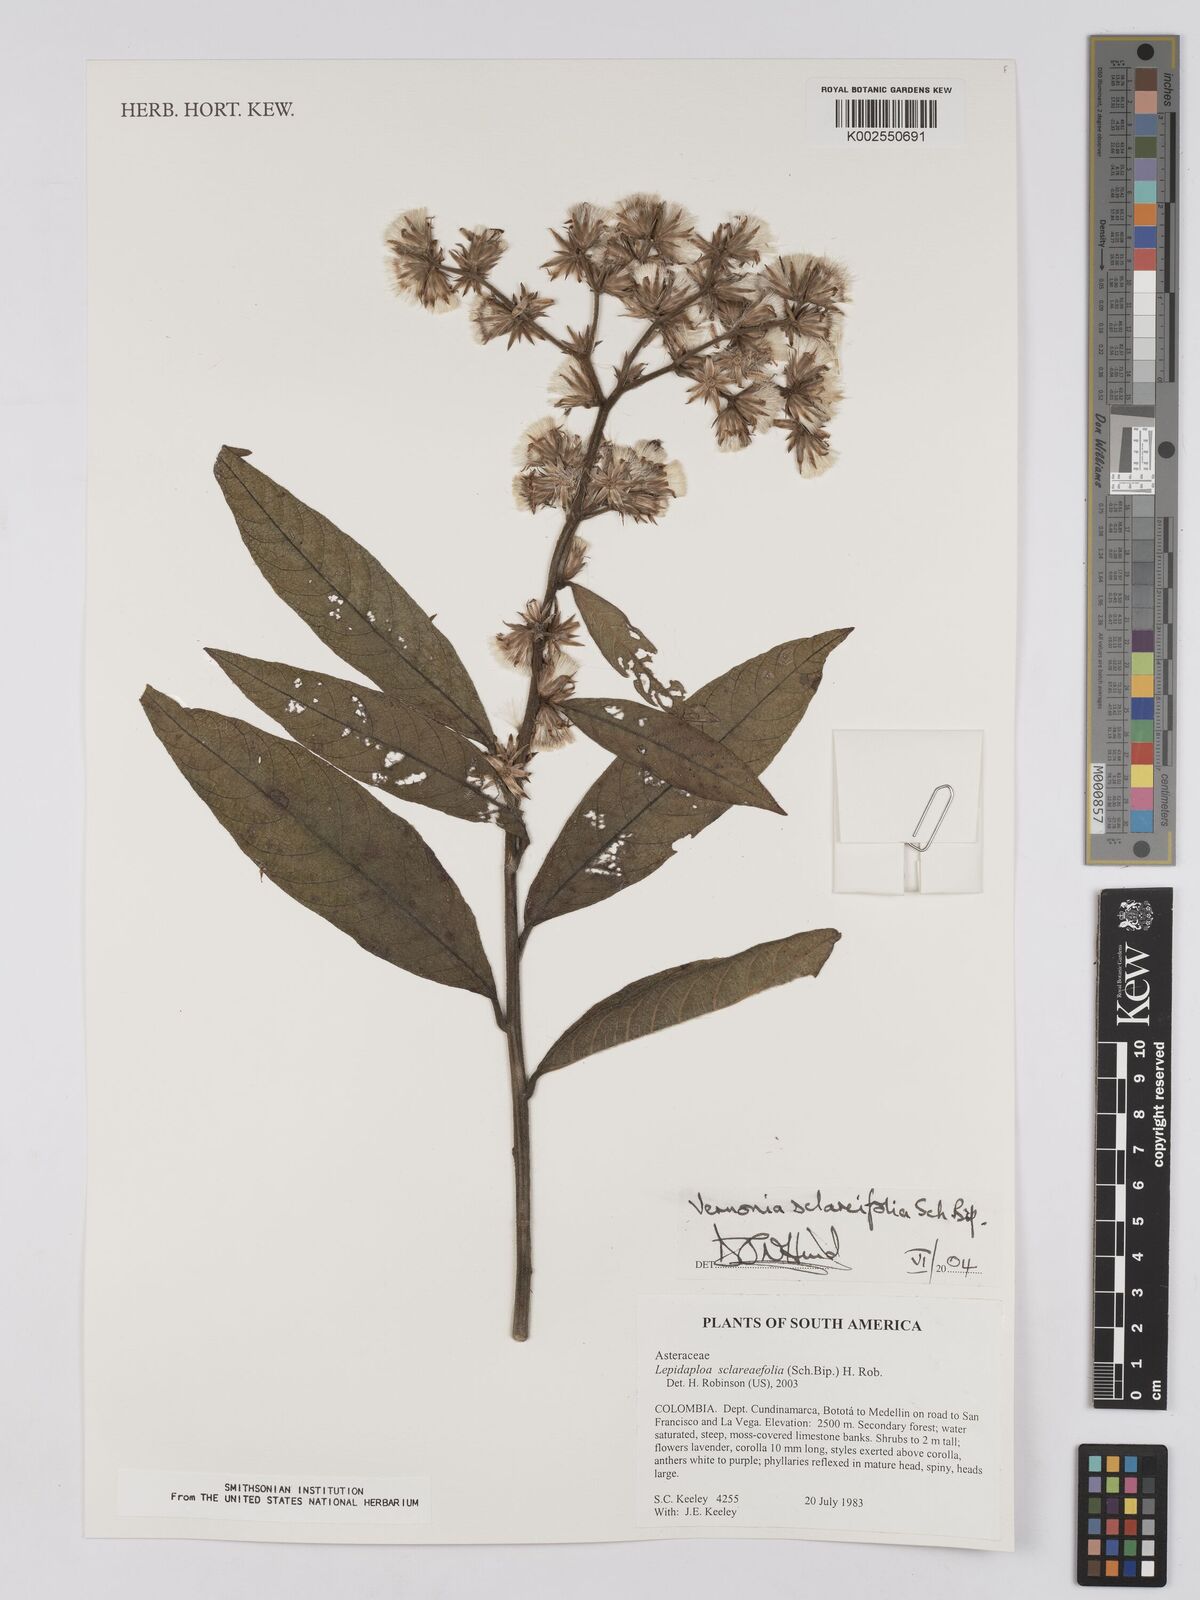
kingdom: Plantae
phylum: Tracheophyta
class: Magnoliopsida
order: Asterales
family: Asteraceae
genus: Lepidaploa
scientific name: Lepidaploa sclareifolia
